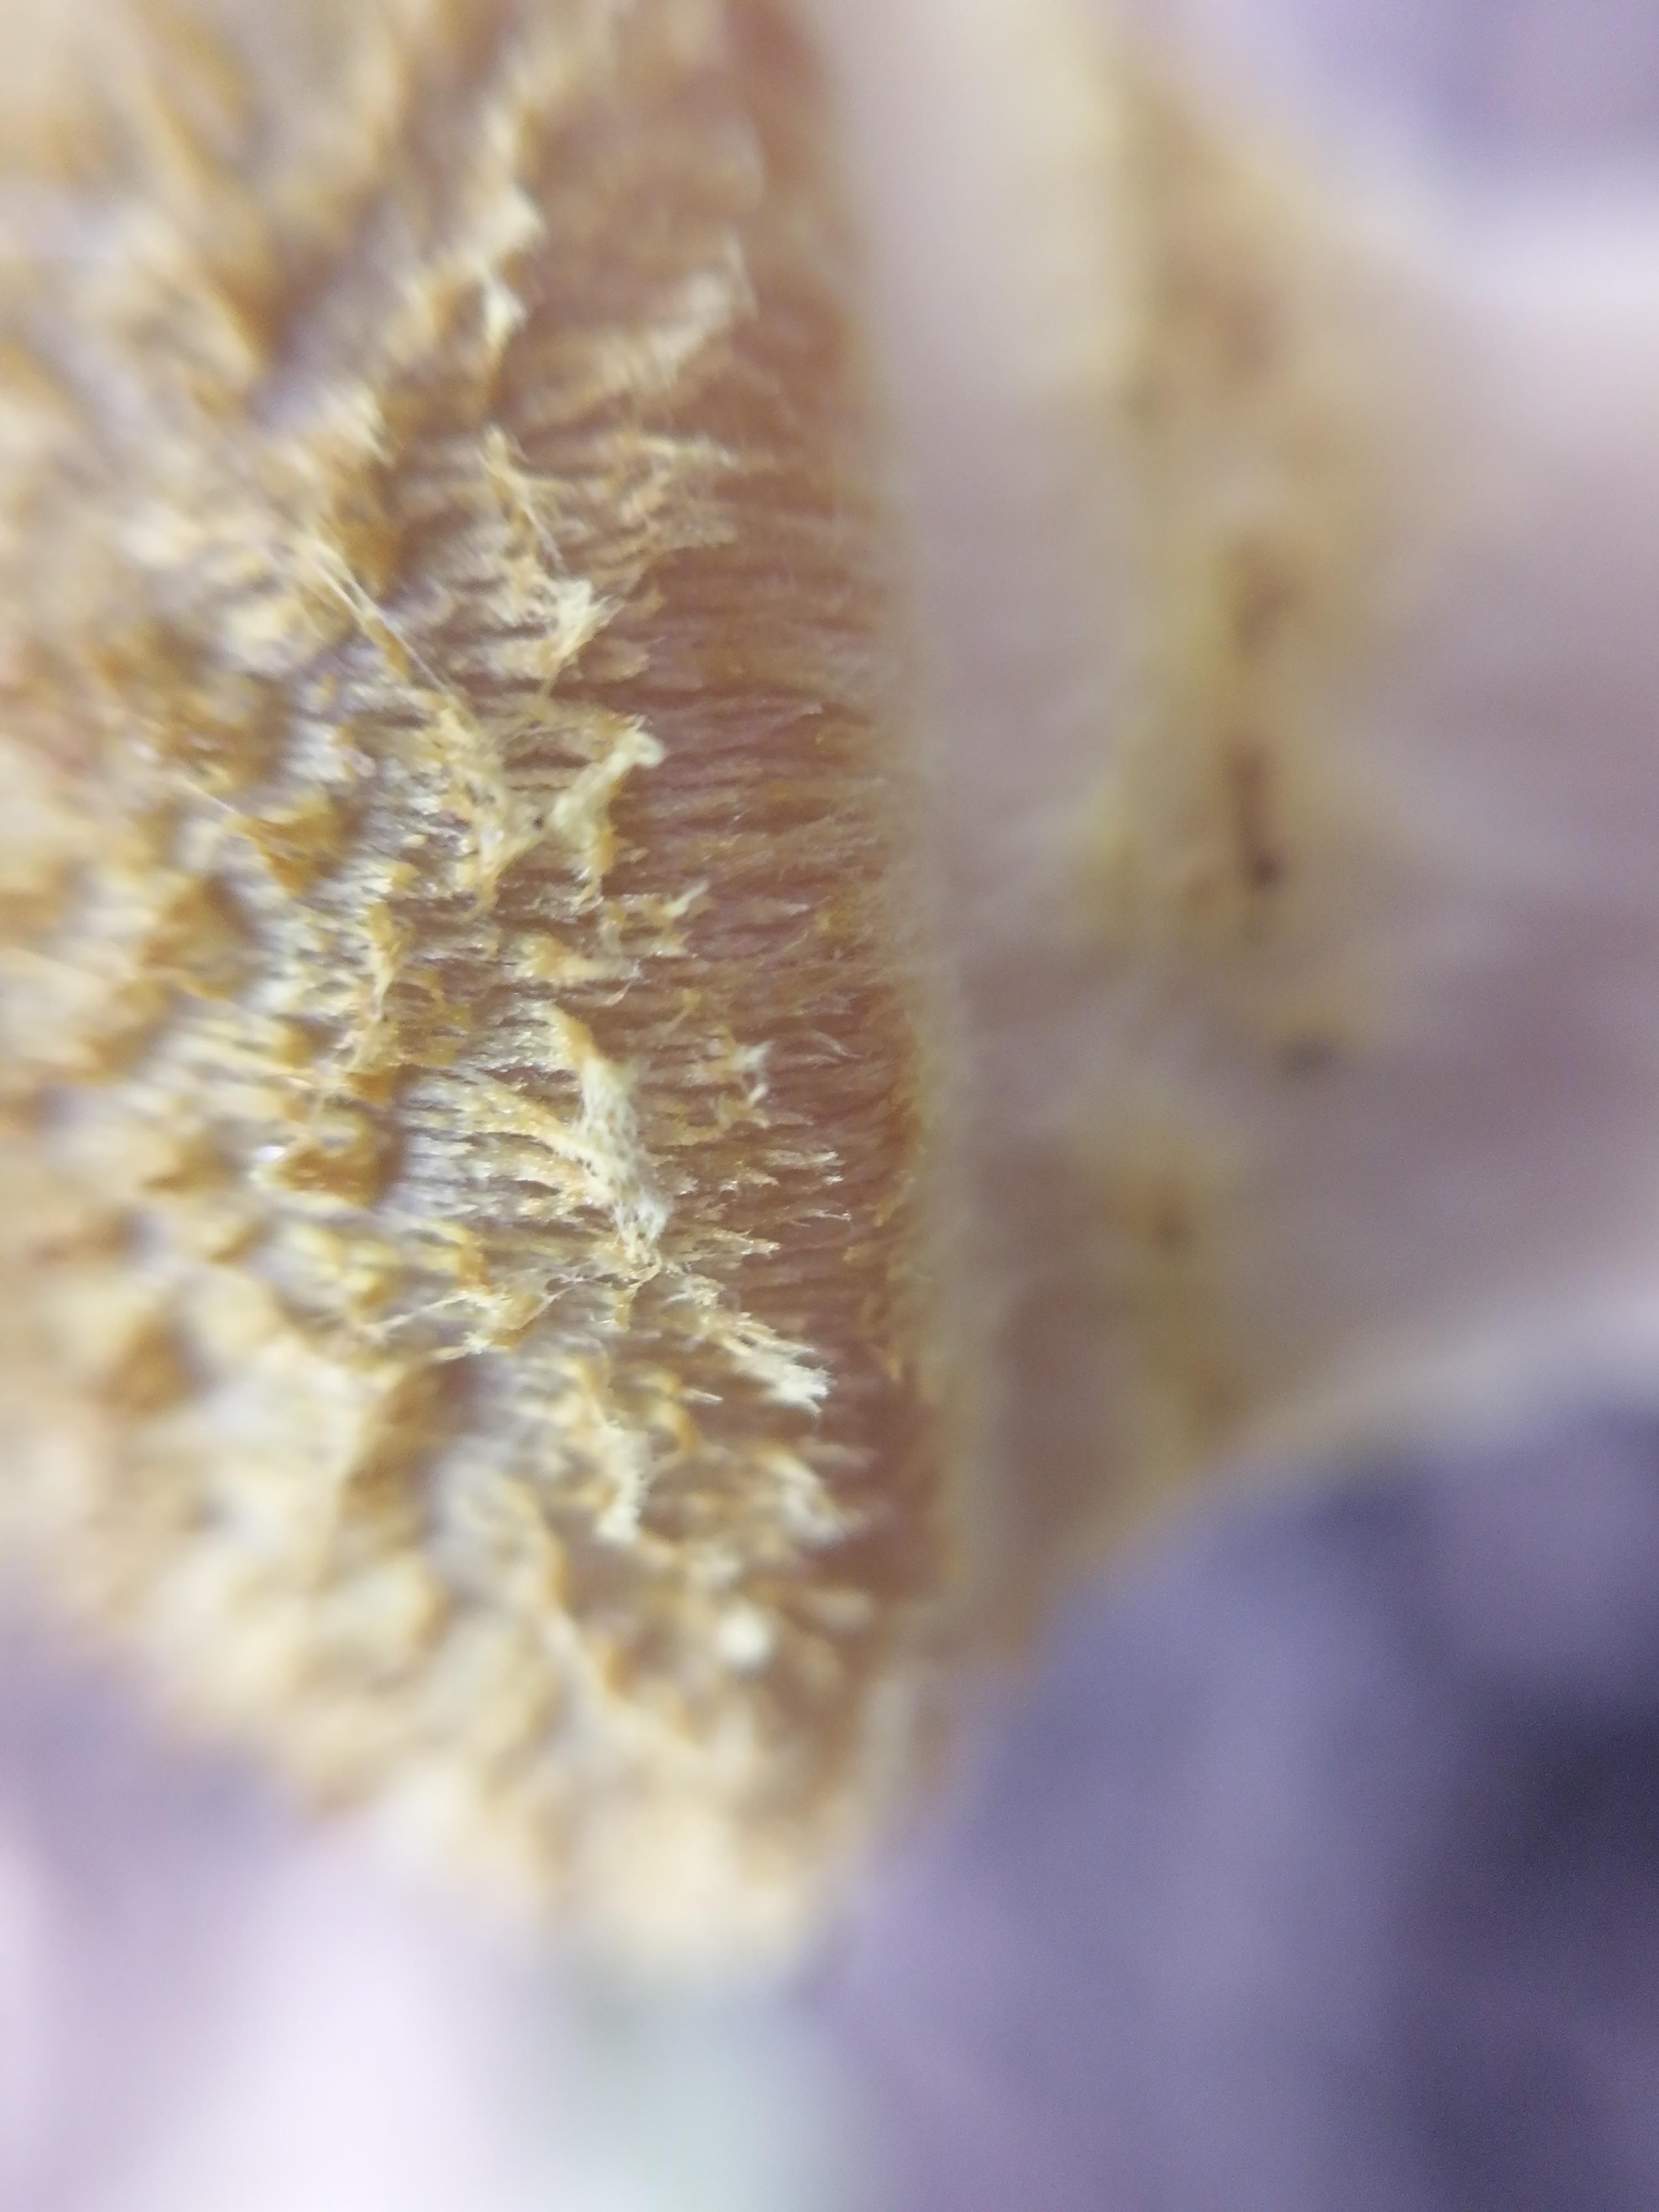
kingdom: Fungi
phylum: Basidiomycota
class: Agaricomycetes
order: Agaricales
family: Physalacriaceae
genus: Armillaria
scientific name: Armillaria lutea
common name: køllestokket honningsvamp
